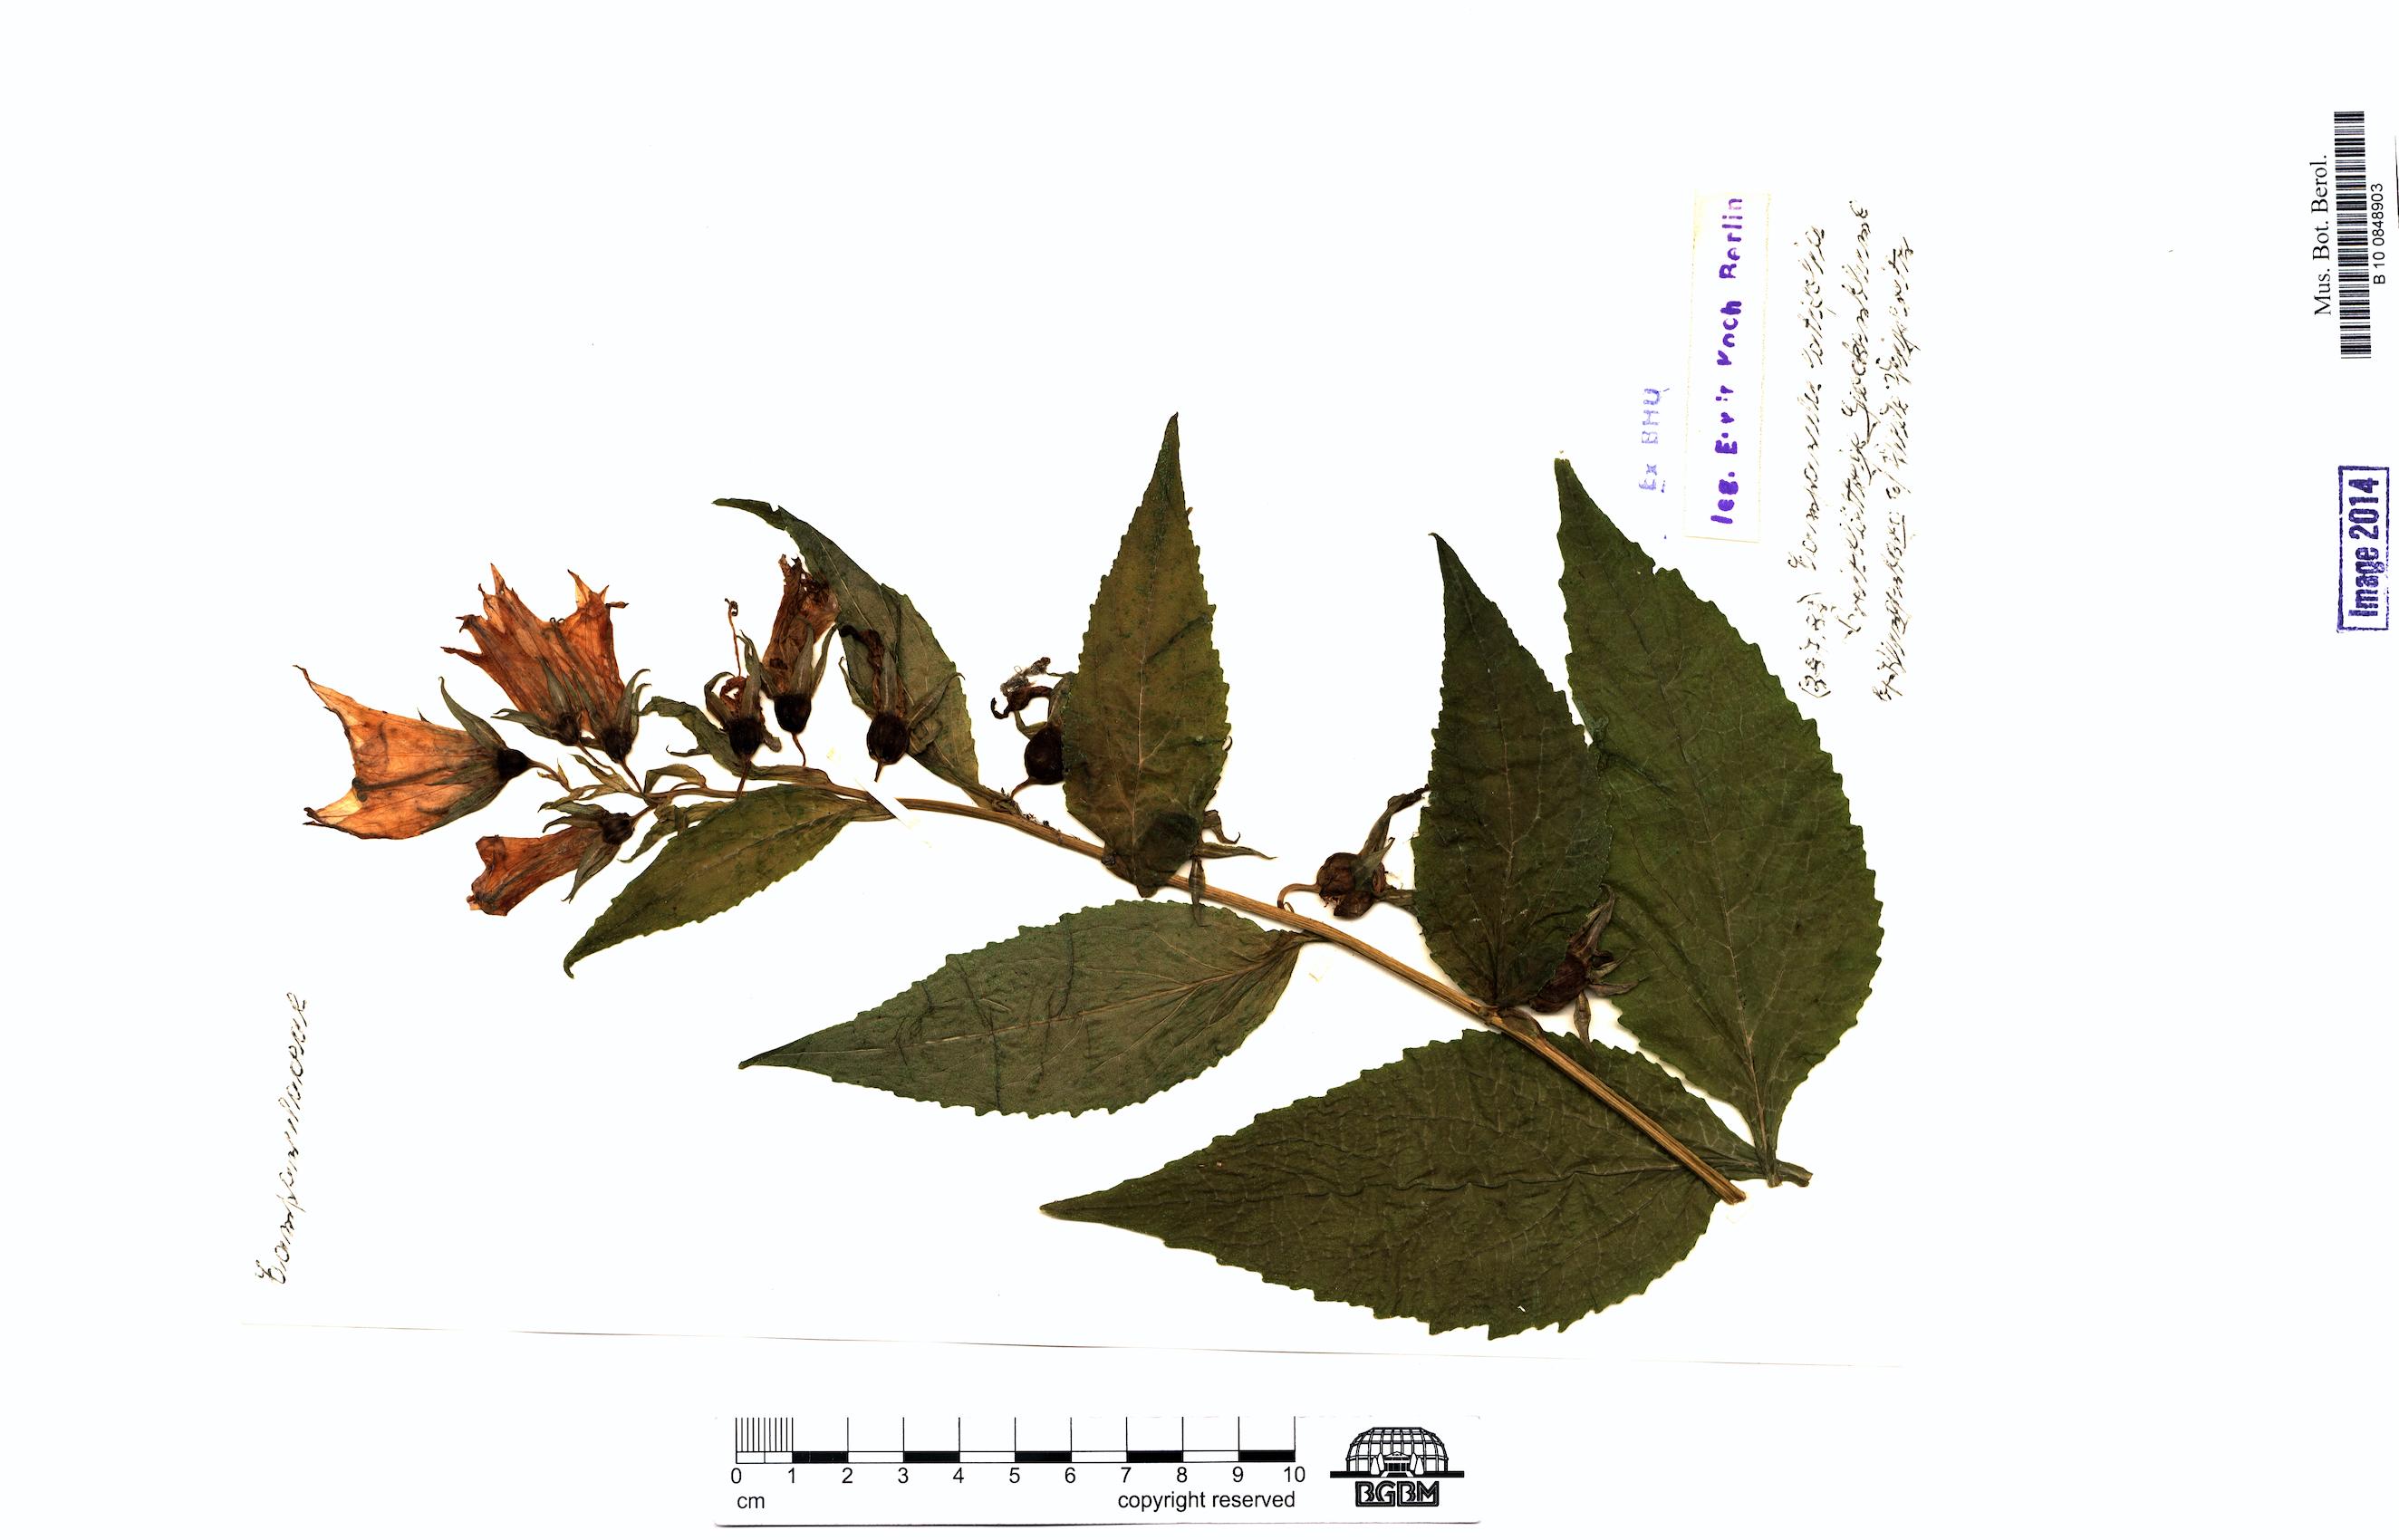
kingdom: Plantae
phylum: Tracheophyta
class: Magnoliopsida
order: Asterales
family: Campanulaceae
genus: Campanula
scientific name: Campanula latifolia
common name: Giant bellflower
